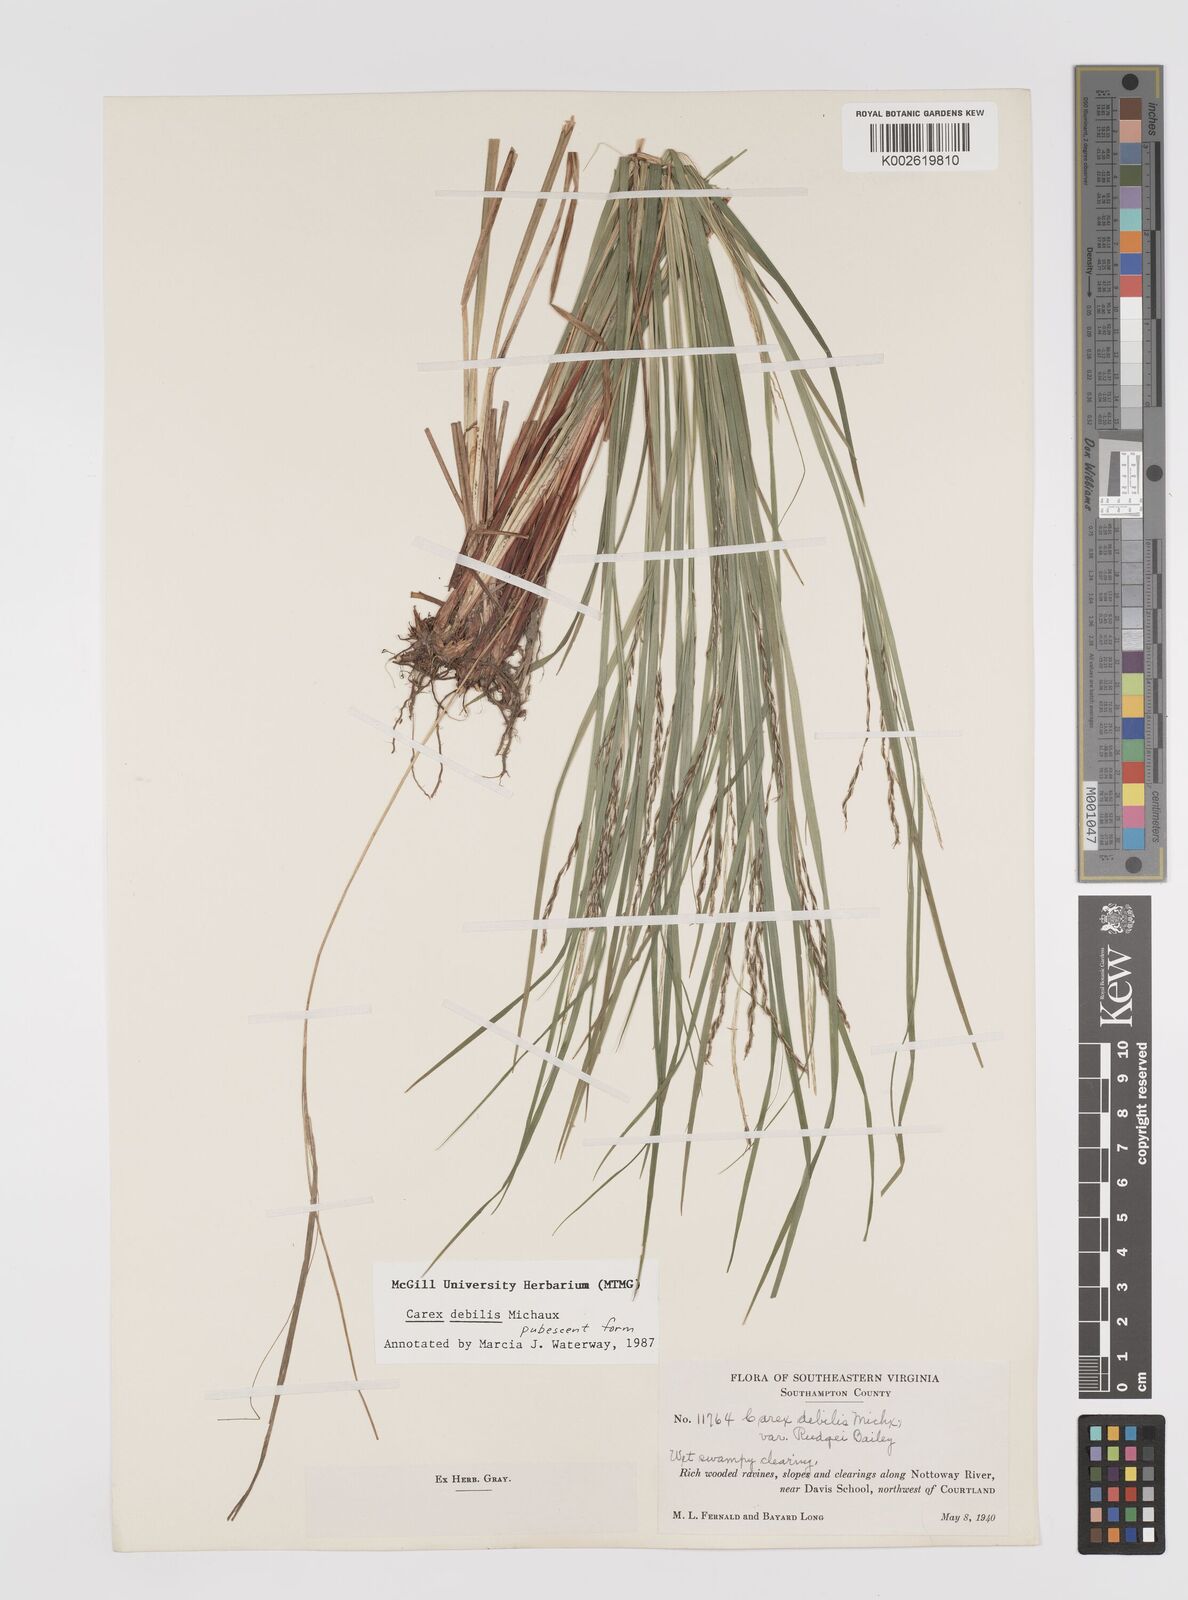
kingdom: Plantae
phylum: Tracheophyta
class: Liliopsida
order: Poales
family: Cyperaceae
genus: Carex
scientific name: Carex debilis
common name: White-edge sedge
